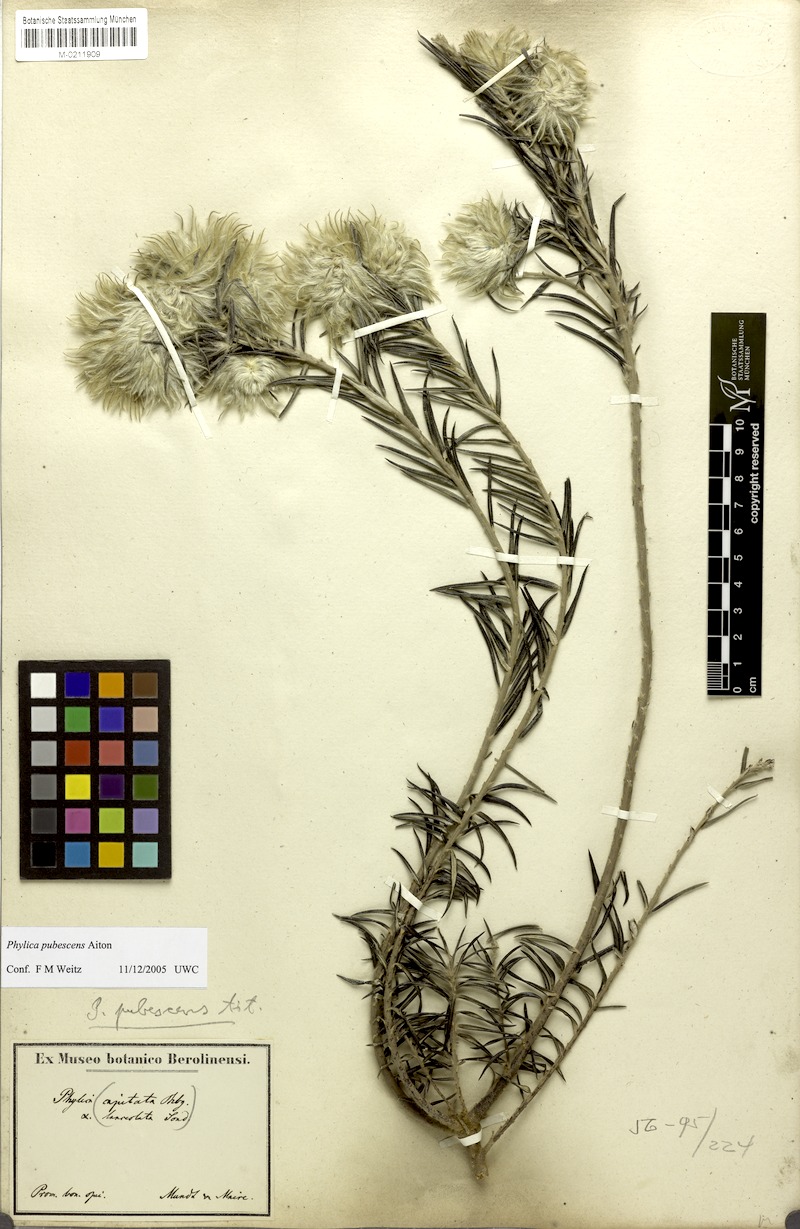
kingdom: Plantae
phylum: Tracheophyta
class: Magnoliopsida
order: Rosales
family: Rhamnaceae
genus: Phylica
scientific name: Phylica pubescens
